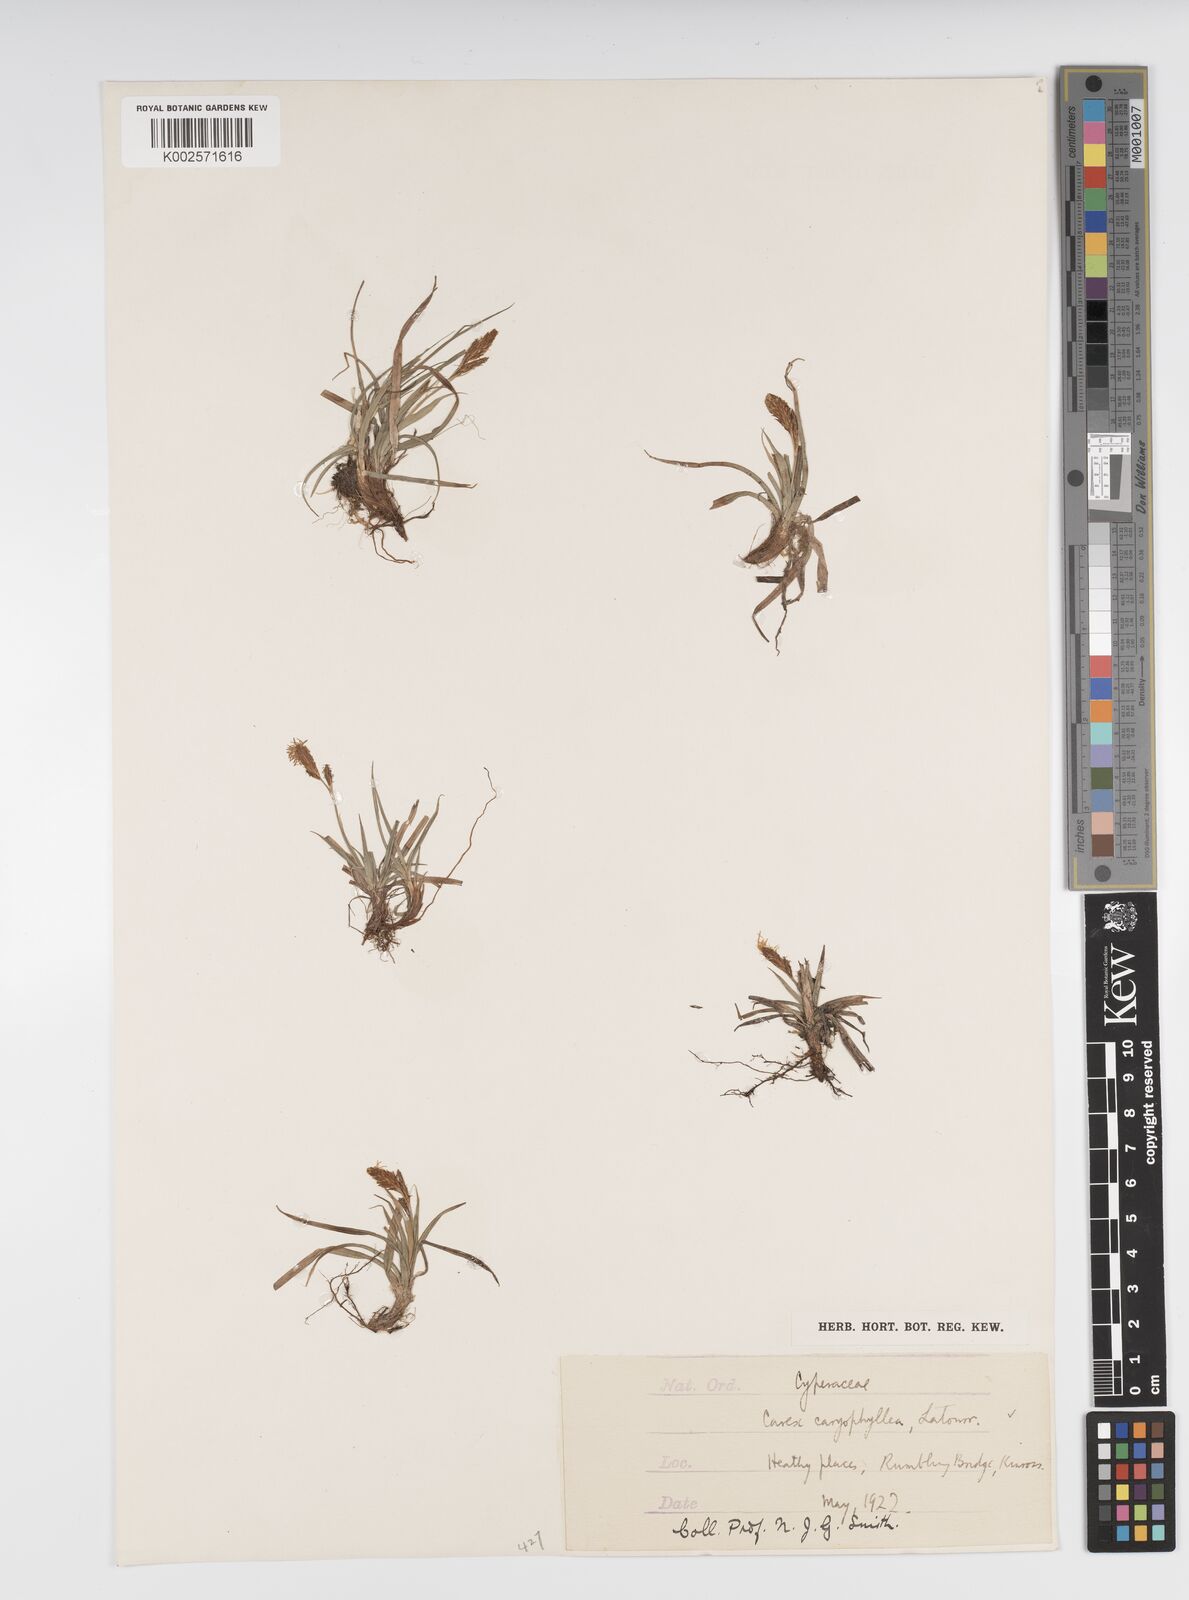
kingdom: Plantae
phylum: Tracheophyta
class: Liliopsida
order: Poales
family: Cyperaceae
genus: Carex
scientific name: Carex caryophyllea
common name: Spring sedge
